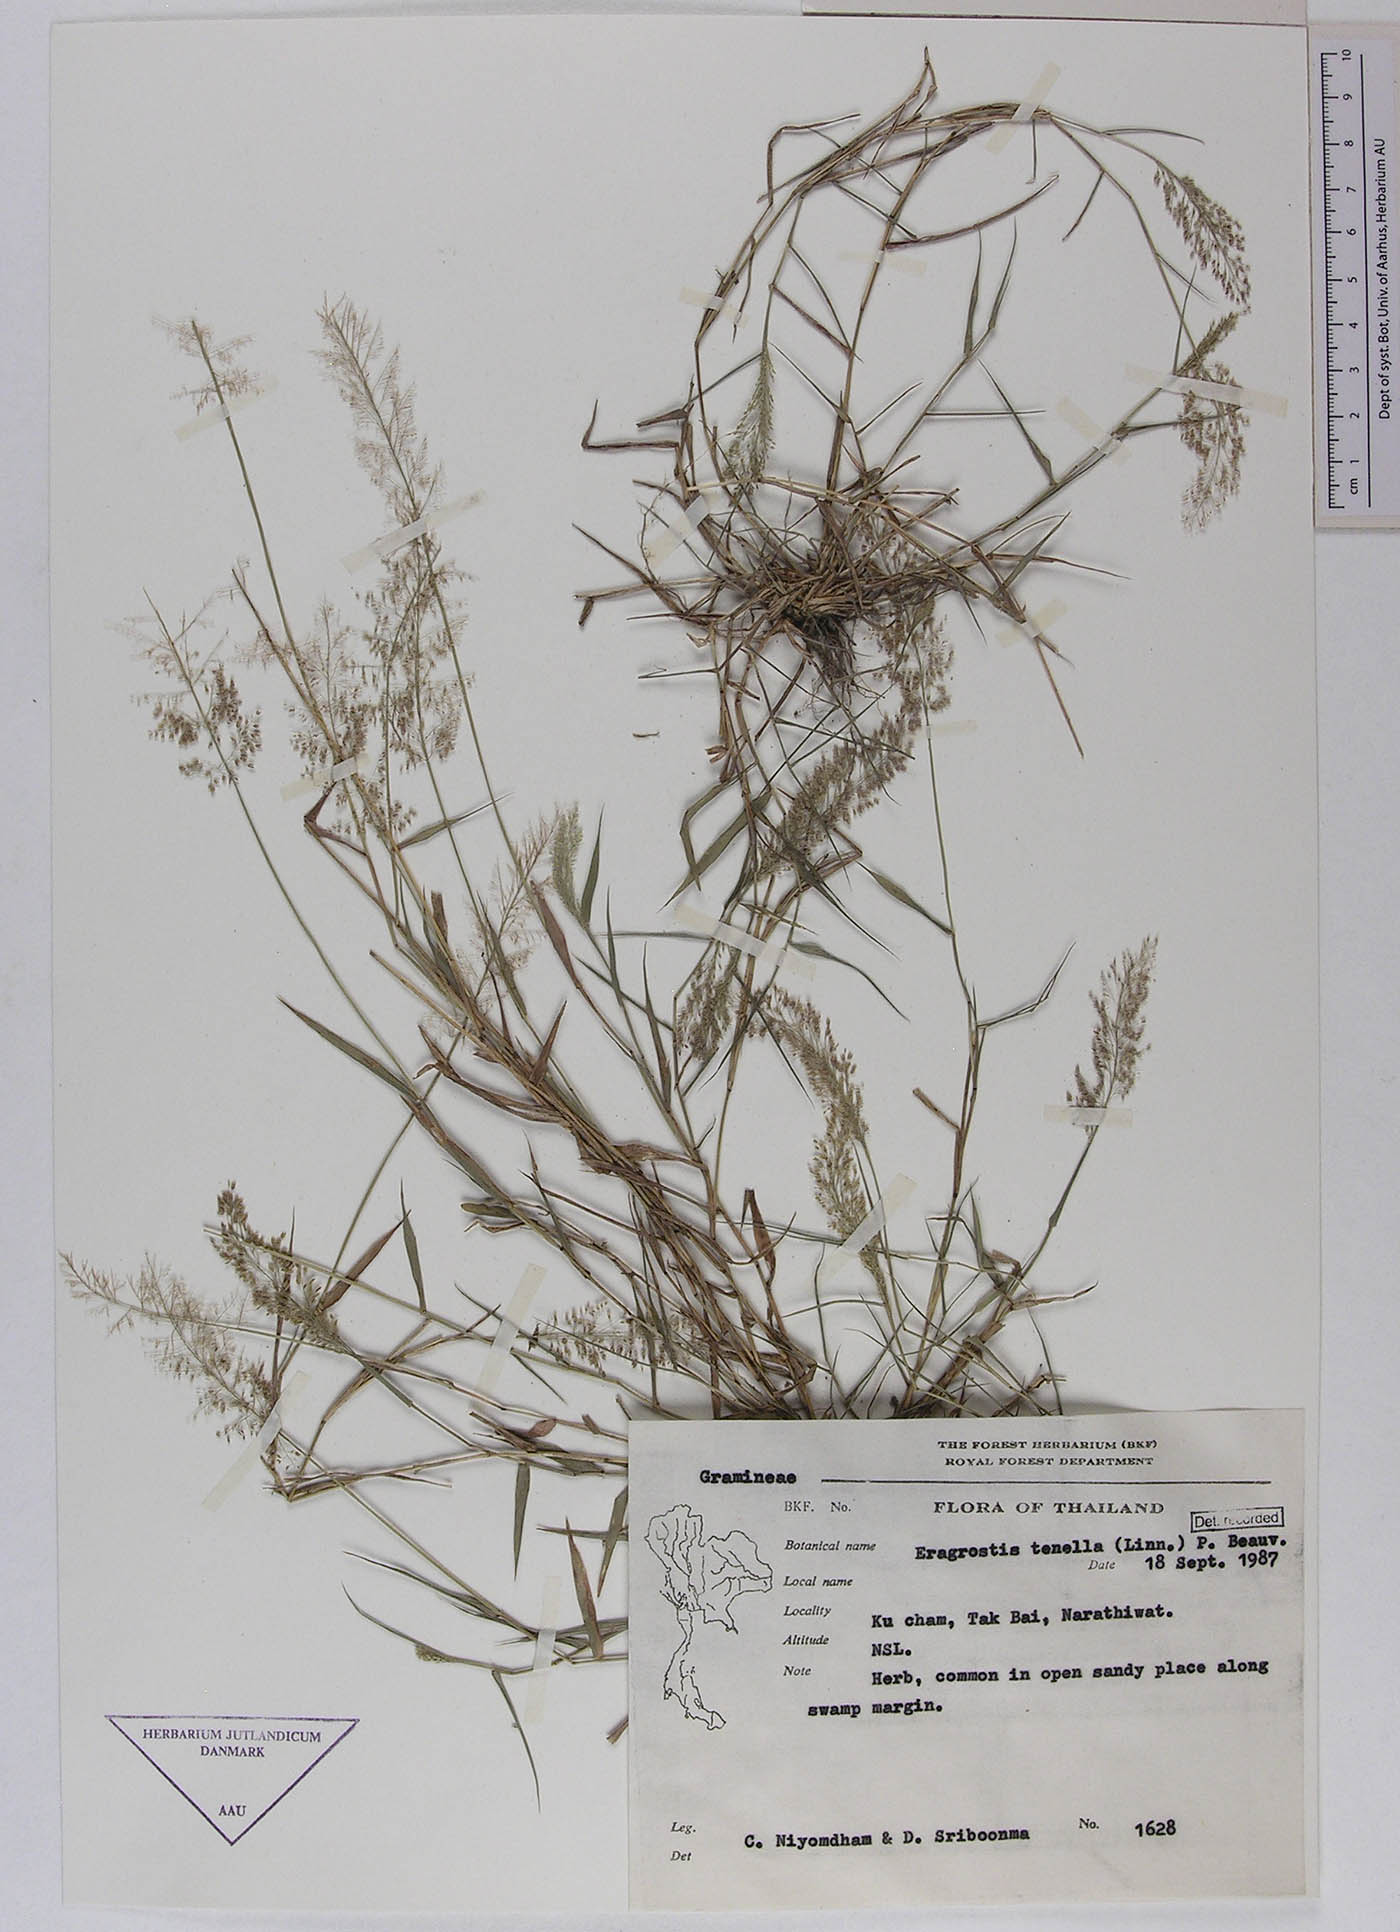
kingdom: Plantae
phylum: Tracheophyta
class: Liliopsida
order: Poales
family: Poaceae
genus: Eragrostis
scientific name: Eragrostis viscosa
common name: Sticky love grass
